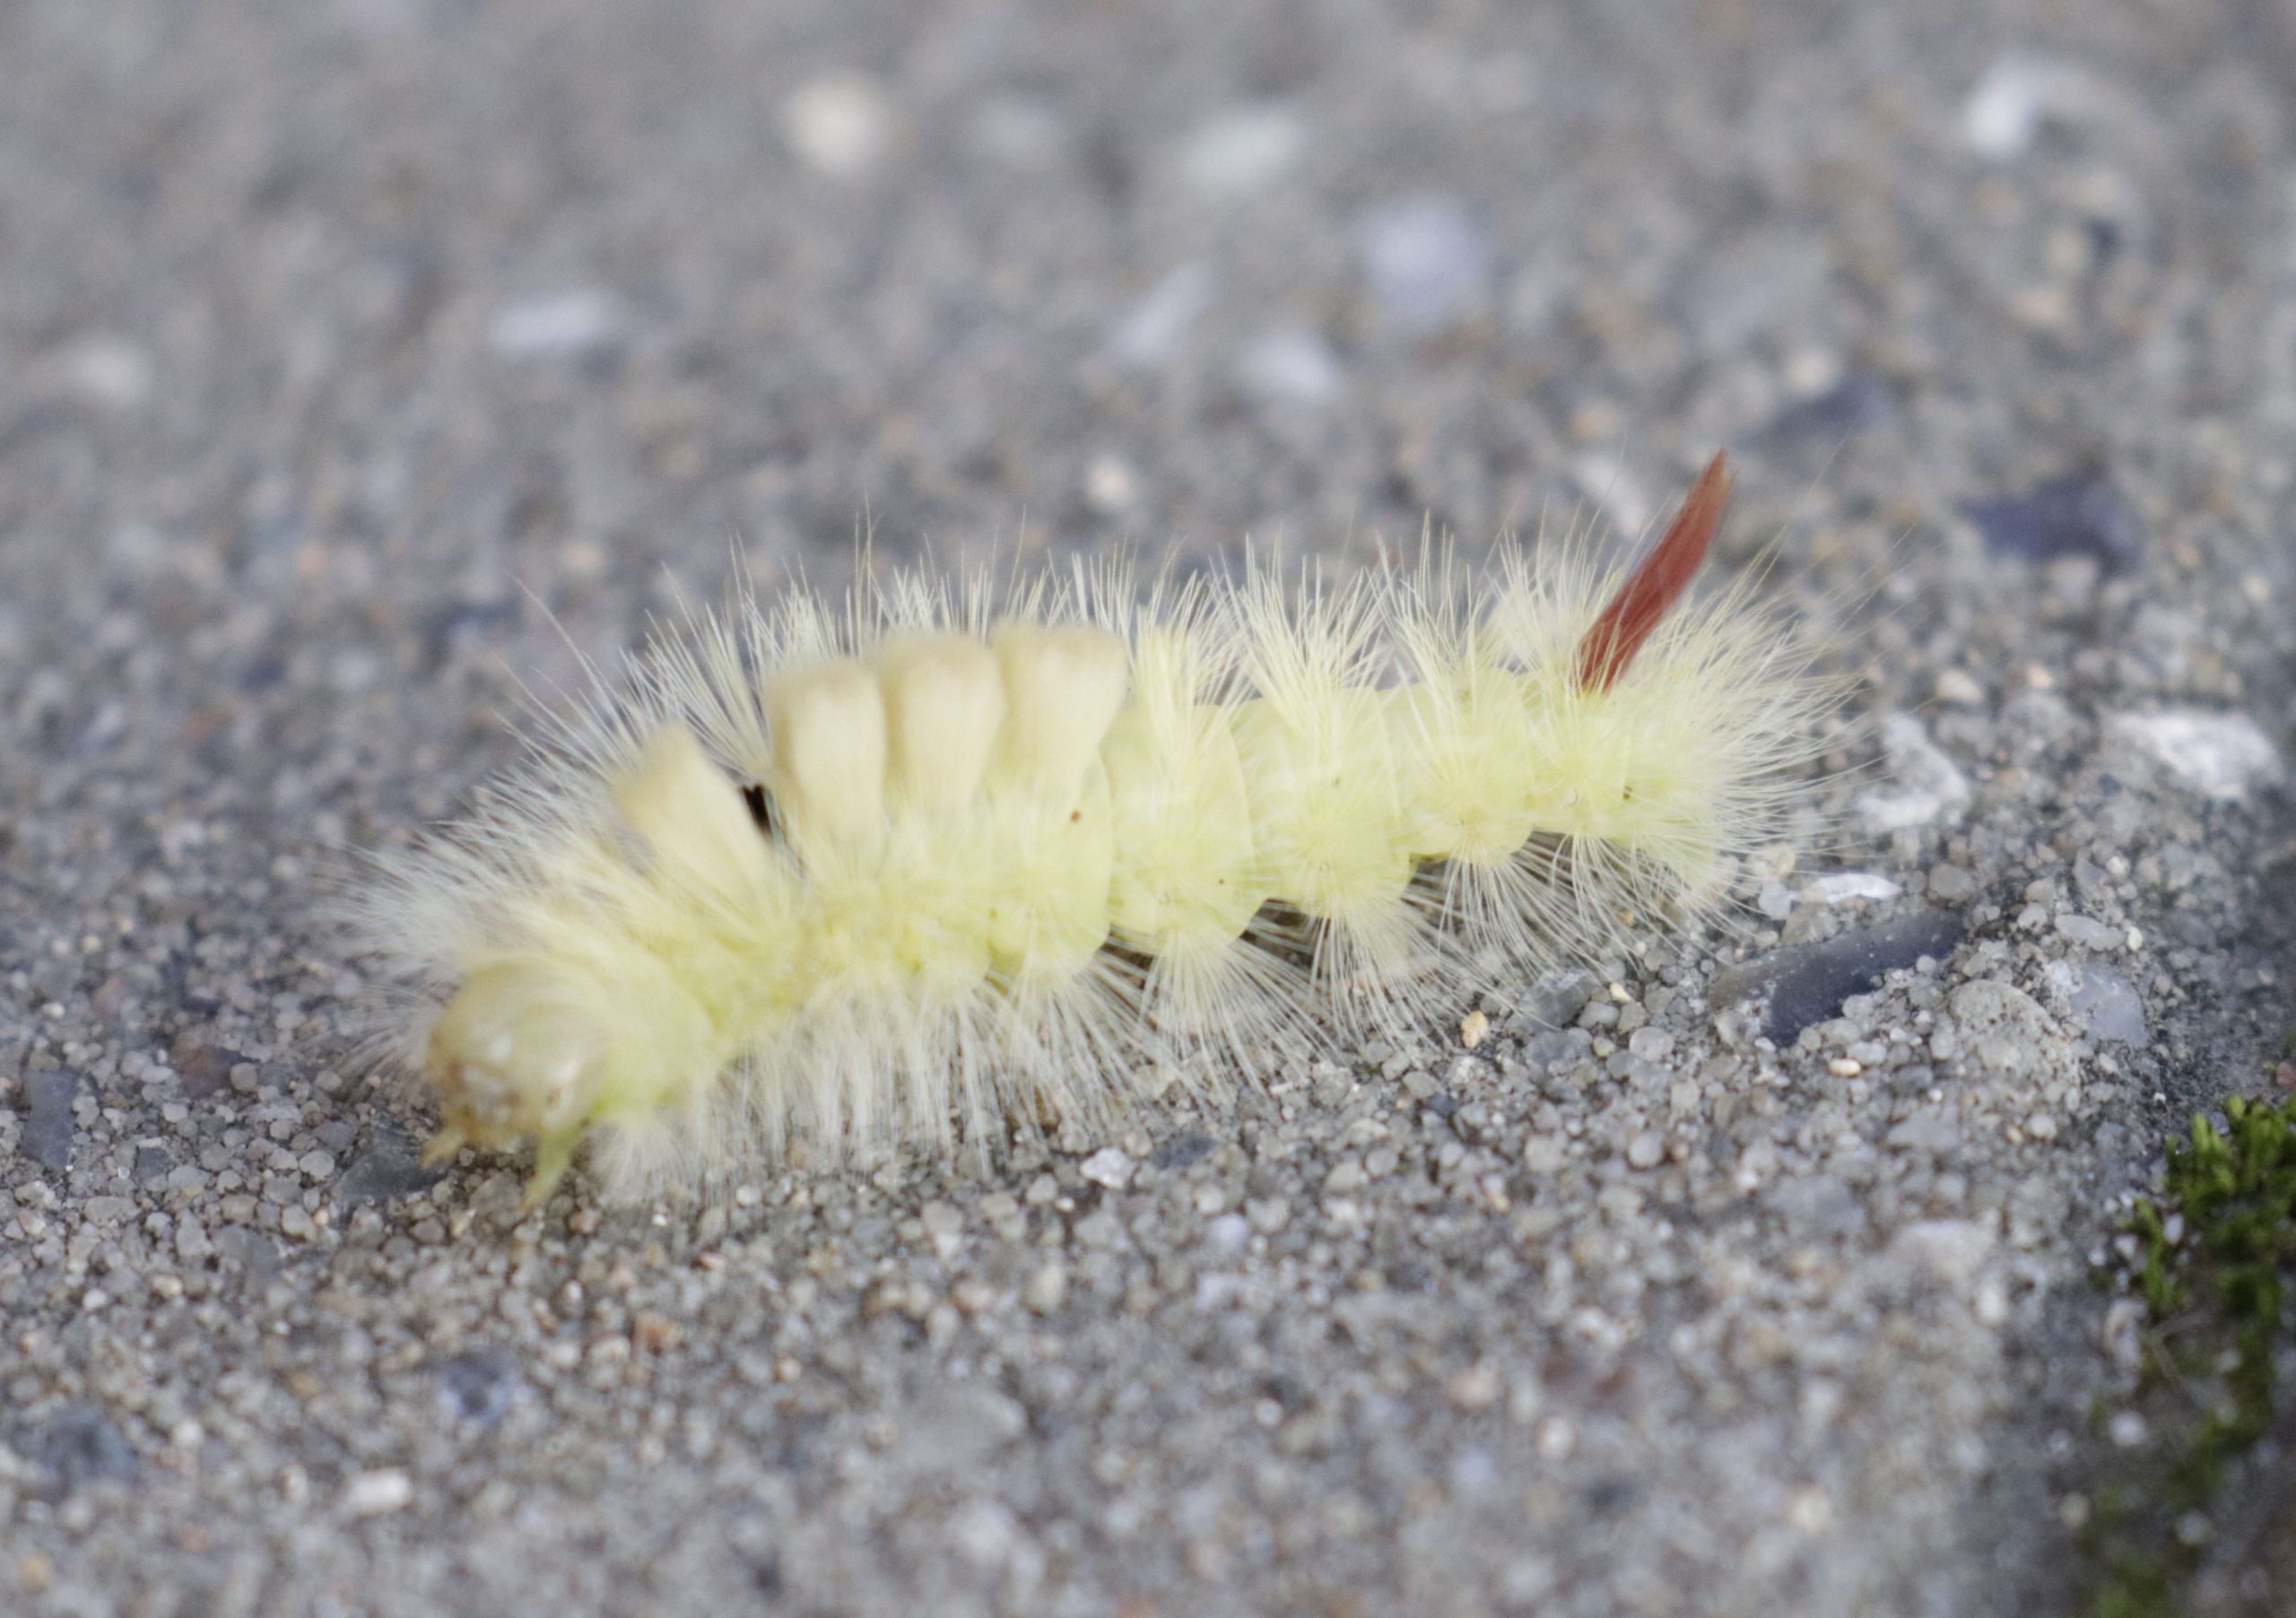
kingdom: Animalia
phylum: Arthropoda
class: Insecta
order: Lepidoptera
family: Erebidae
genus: Calliteara
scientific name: Calliteara pudibunda
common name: Bøgenonne
